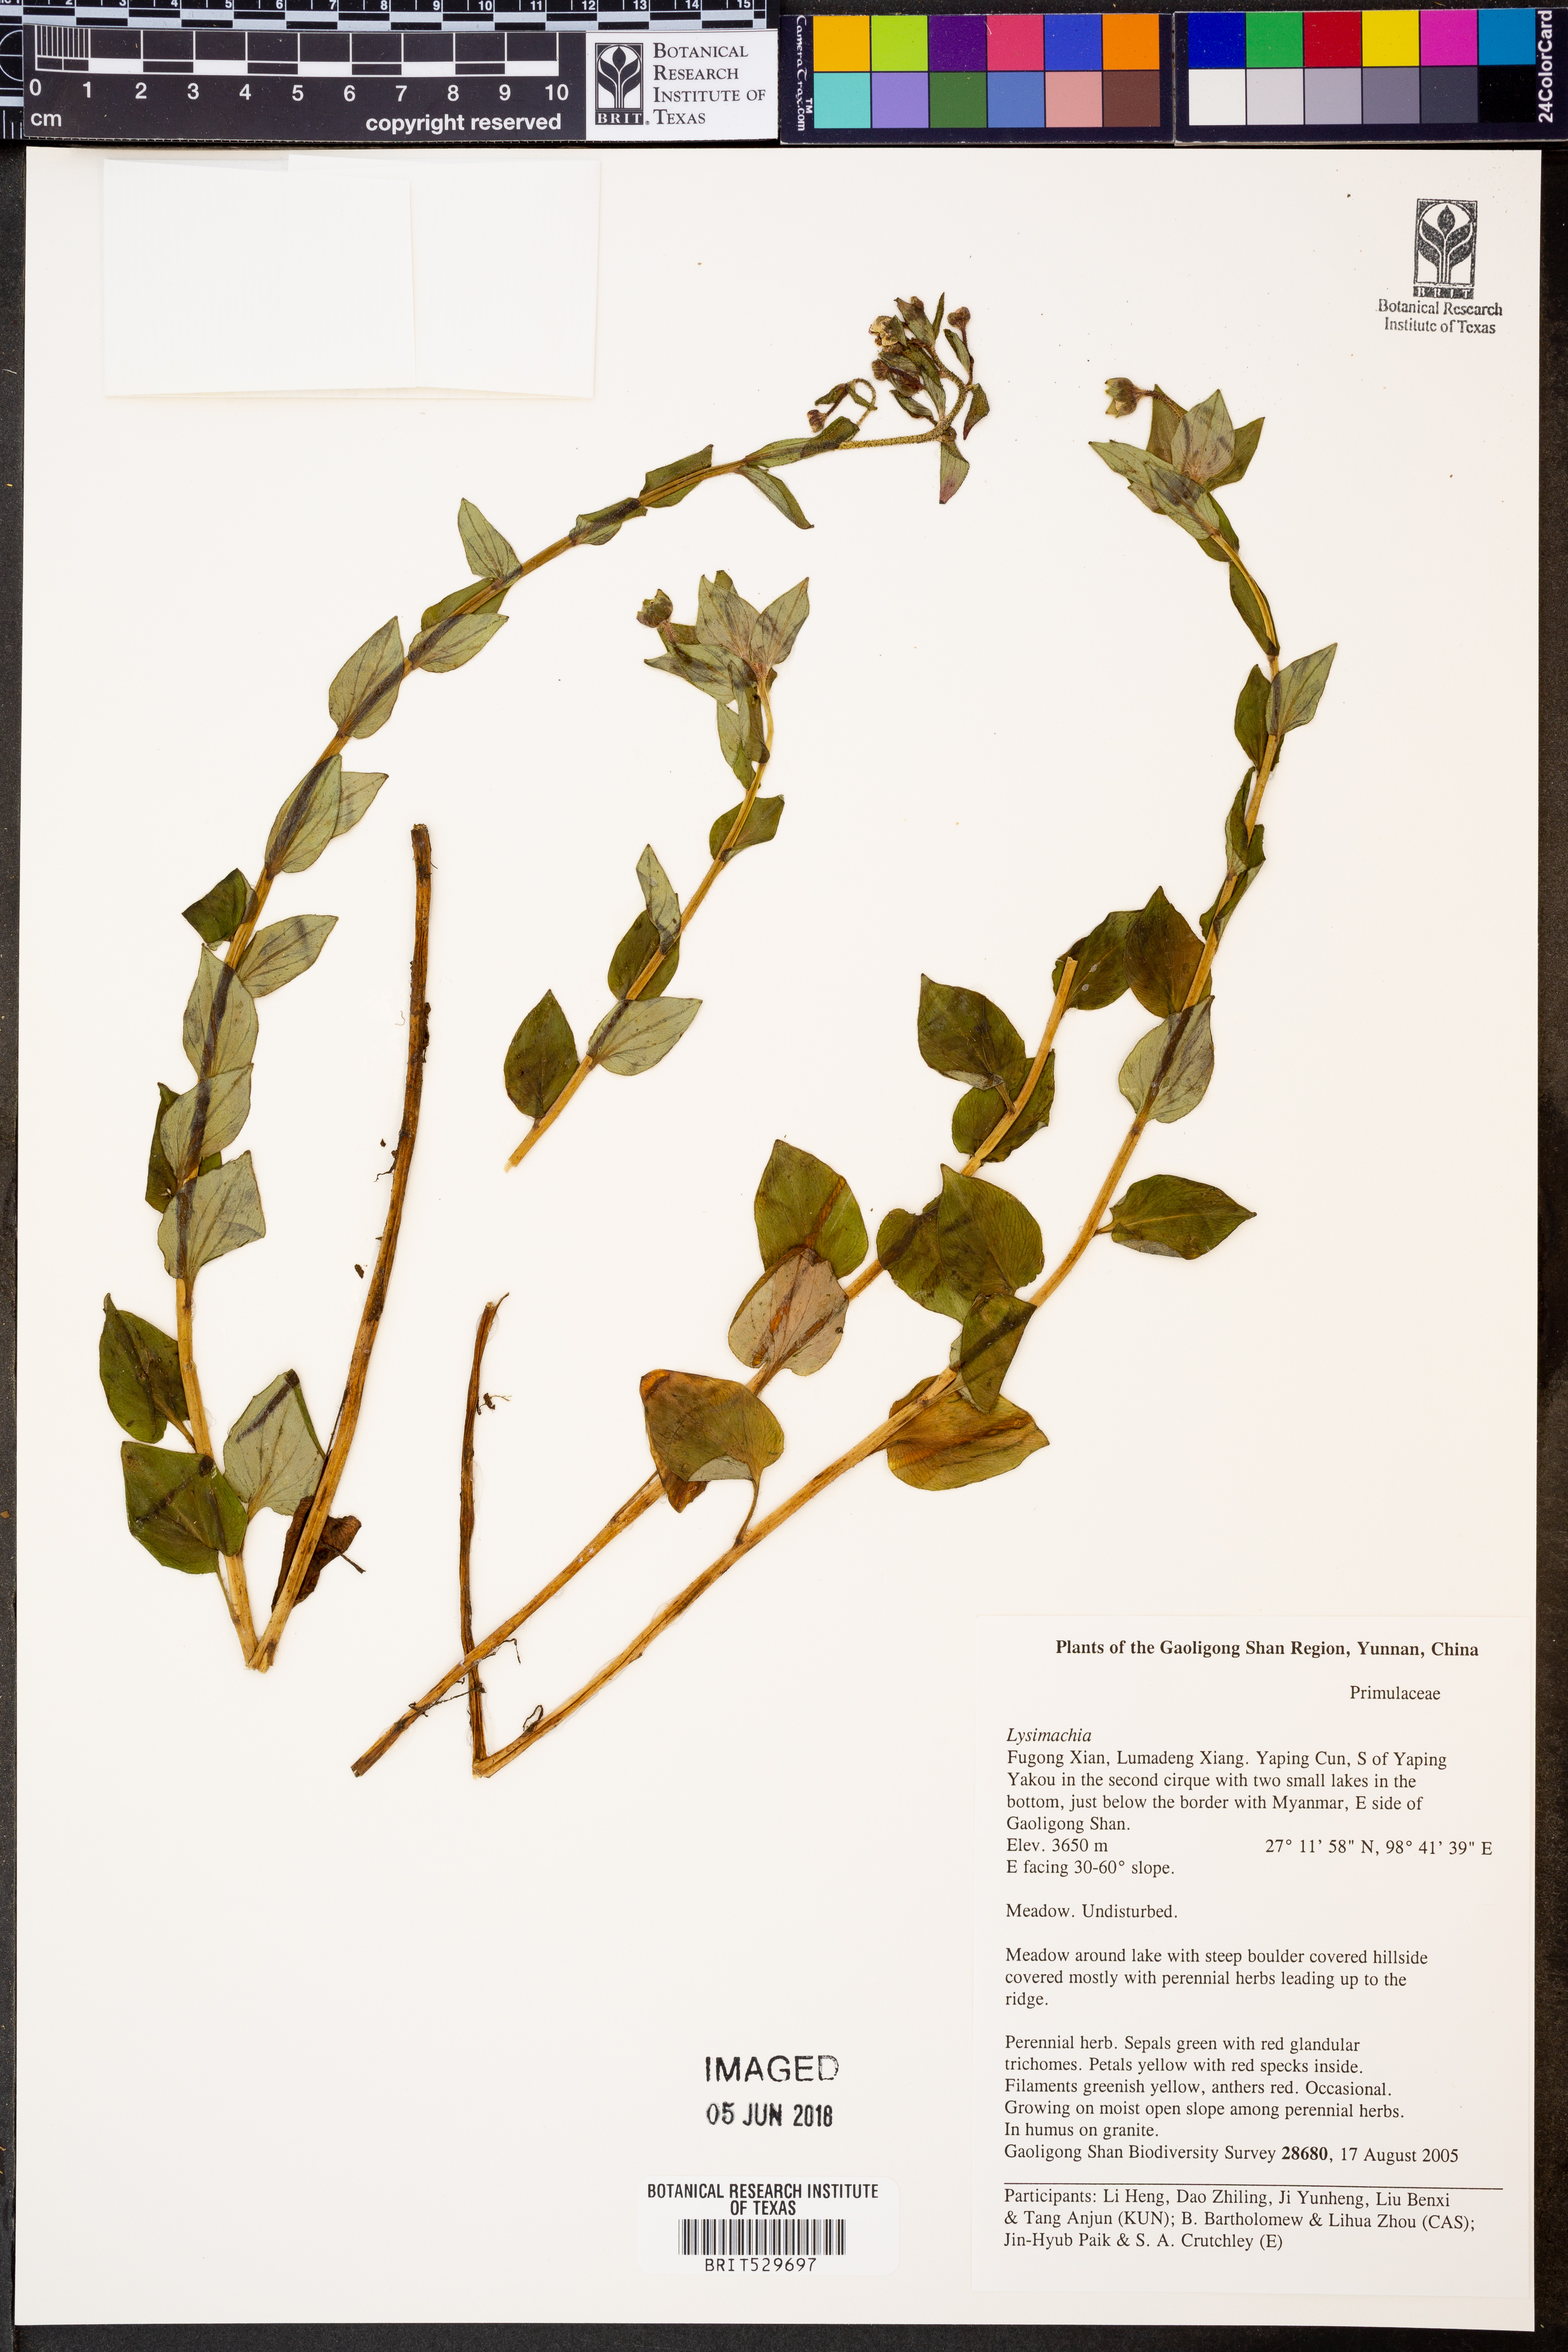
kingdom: Plantae
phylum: Tracheophyta
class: Magnoliopsida
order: Ericales
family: Primulaceae
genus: Lysimachia
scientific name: Lysimachia
